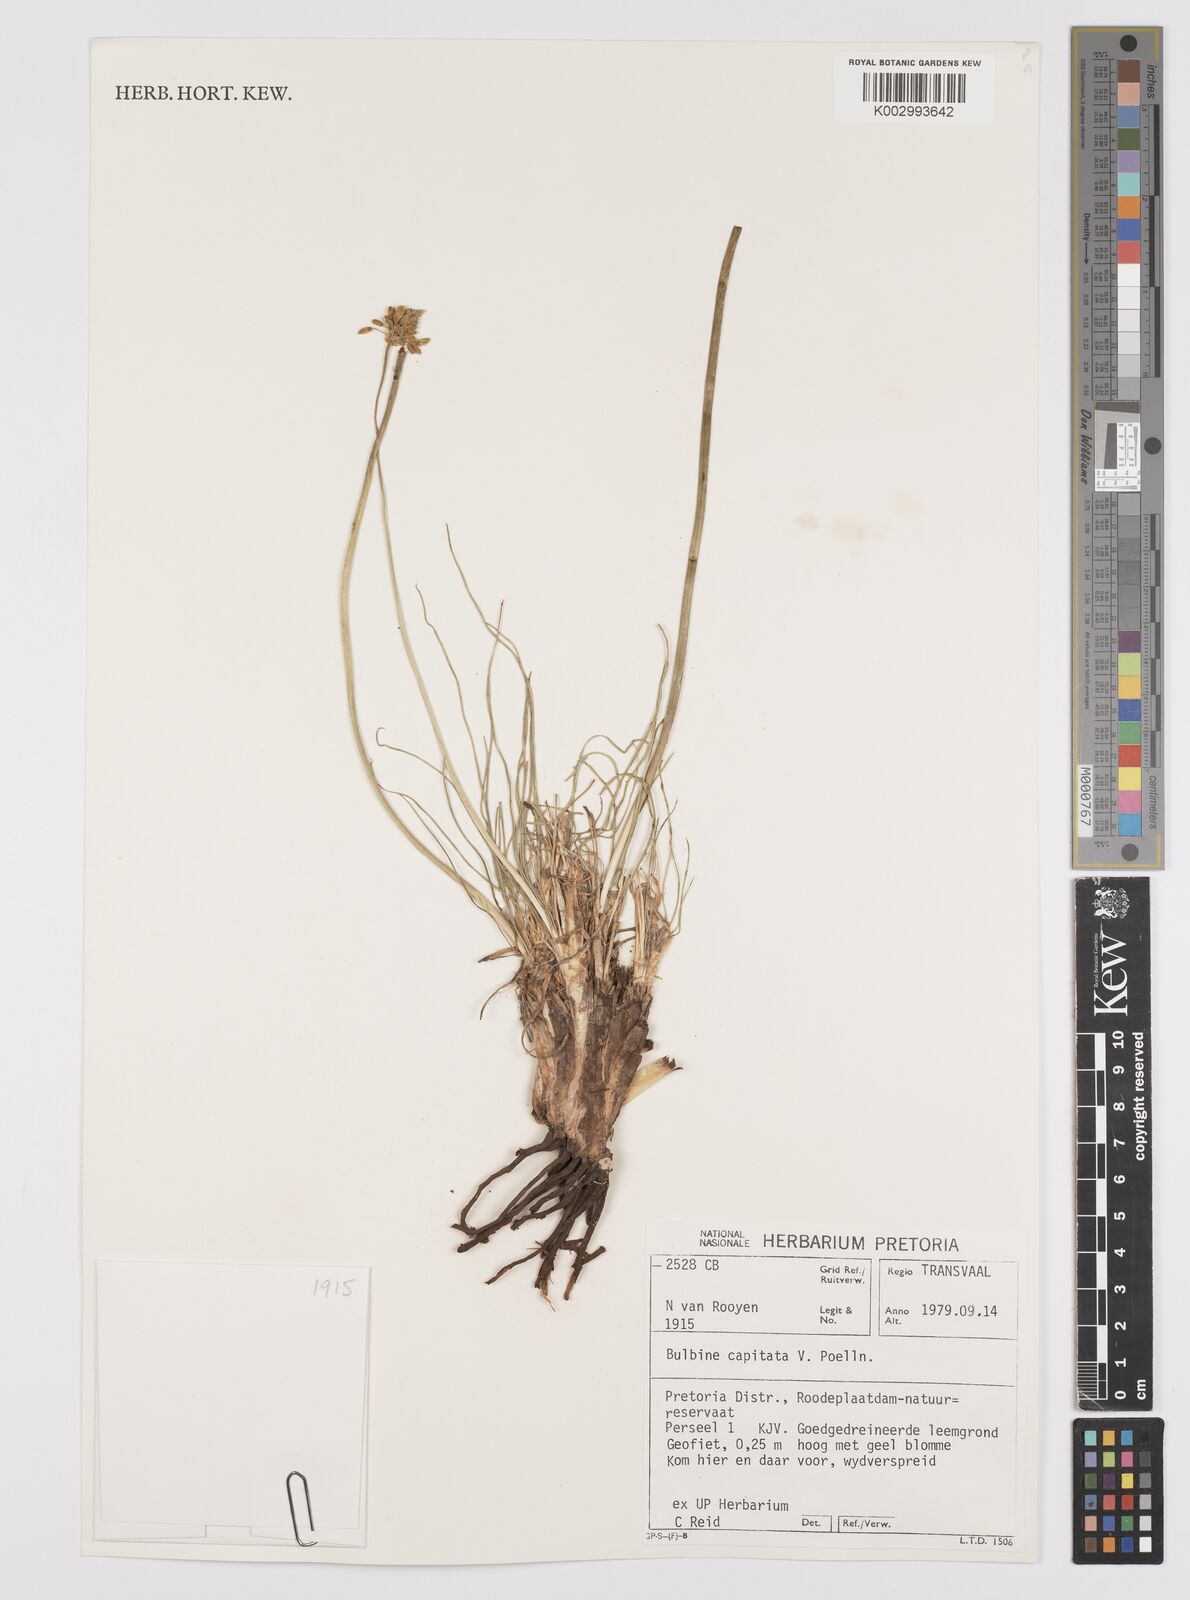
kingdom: Plantae
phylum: Tracheophyta
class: Liliopsida
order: Asparagales
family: Asphodelaceae
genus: Bulbine
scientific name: Bulbine capitata
